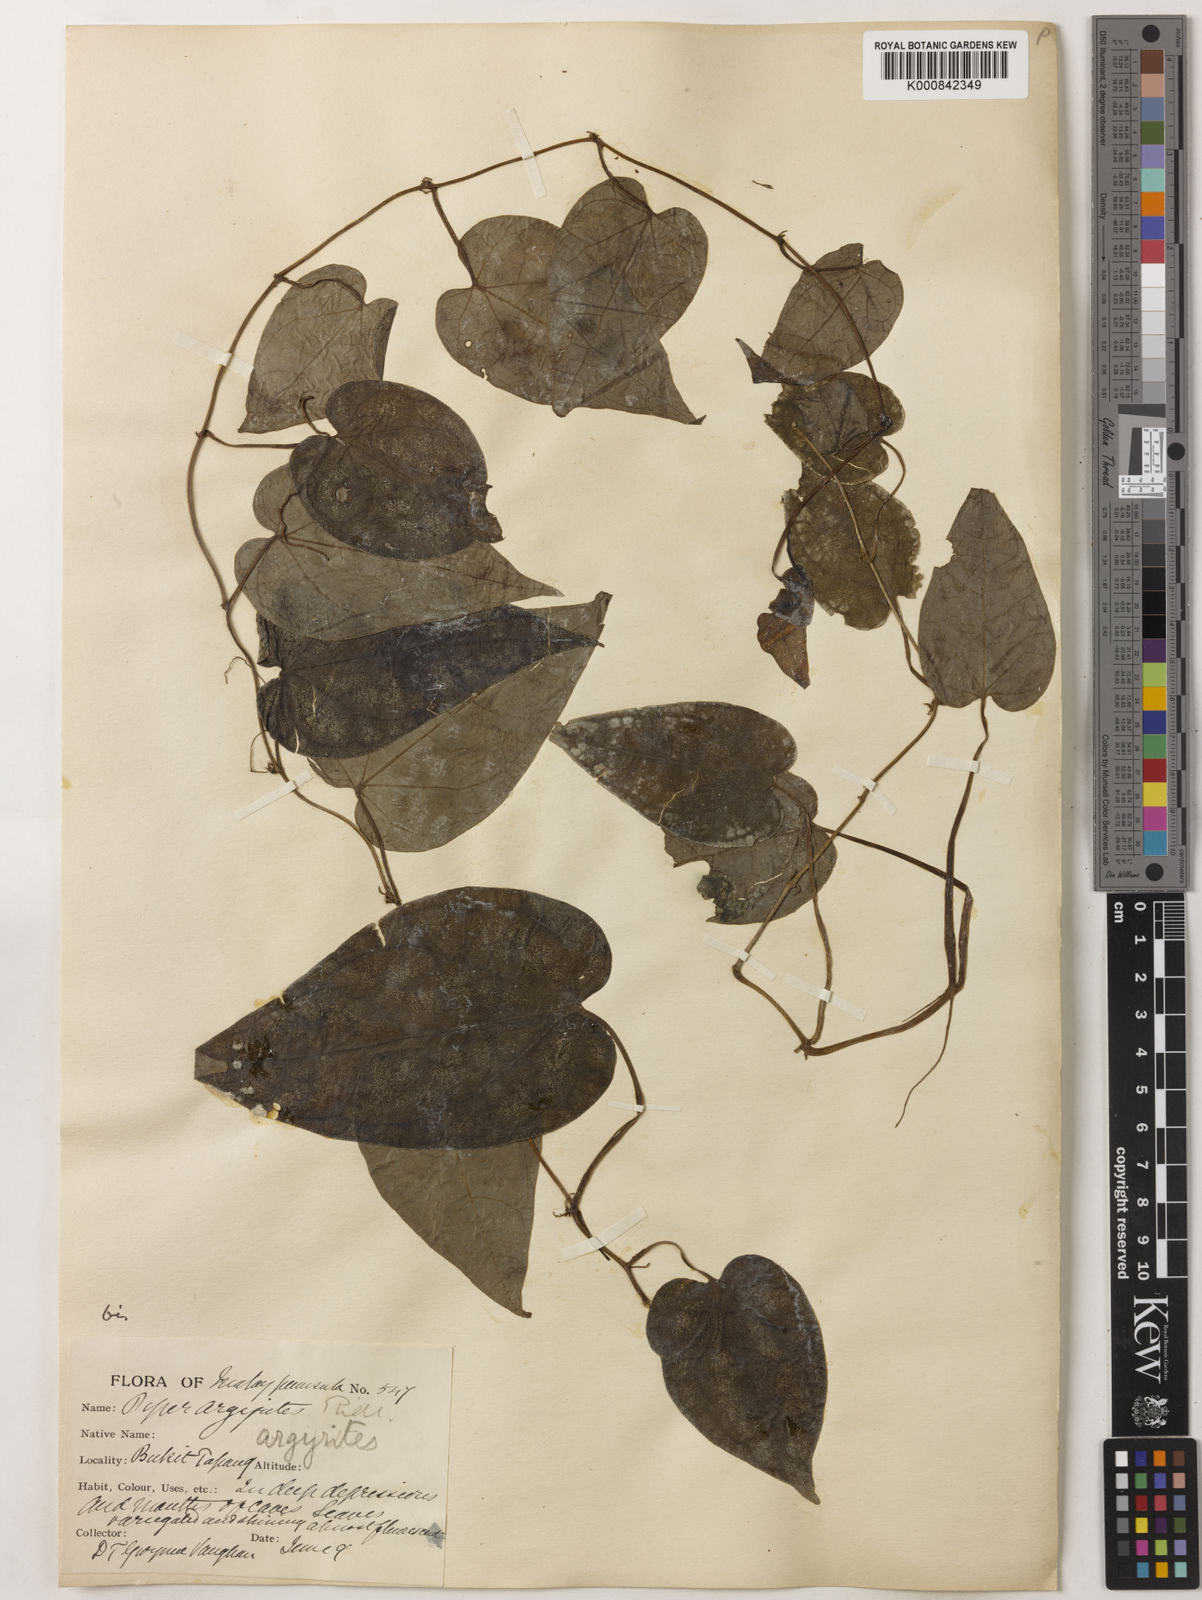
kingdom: Plantae
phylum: Tracheophyta
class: Magnoliopsida
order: Piperales
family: Piperaceae
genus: Piper
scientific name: Piper argyrites
